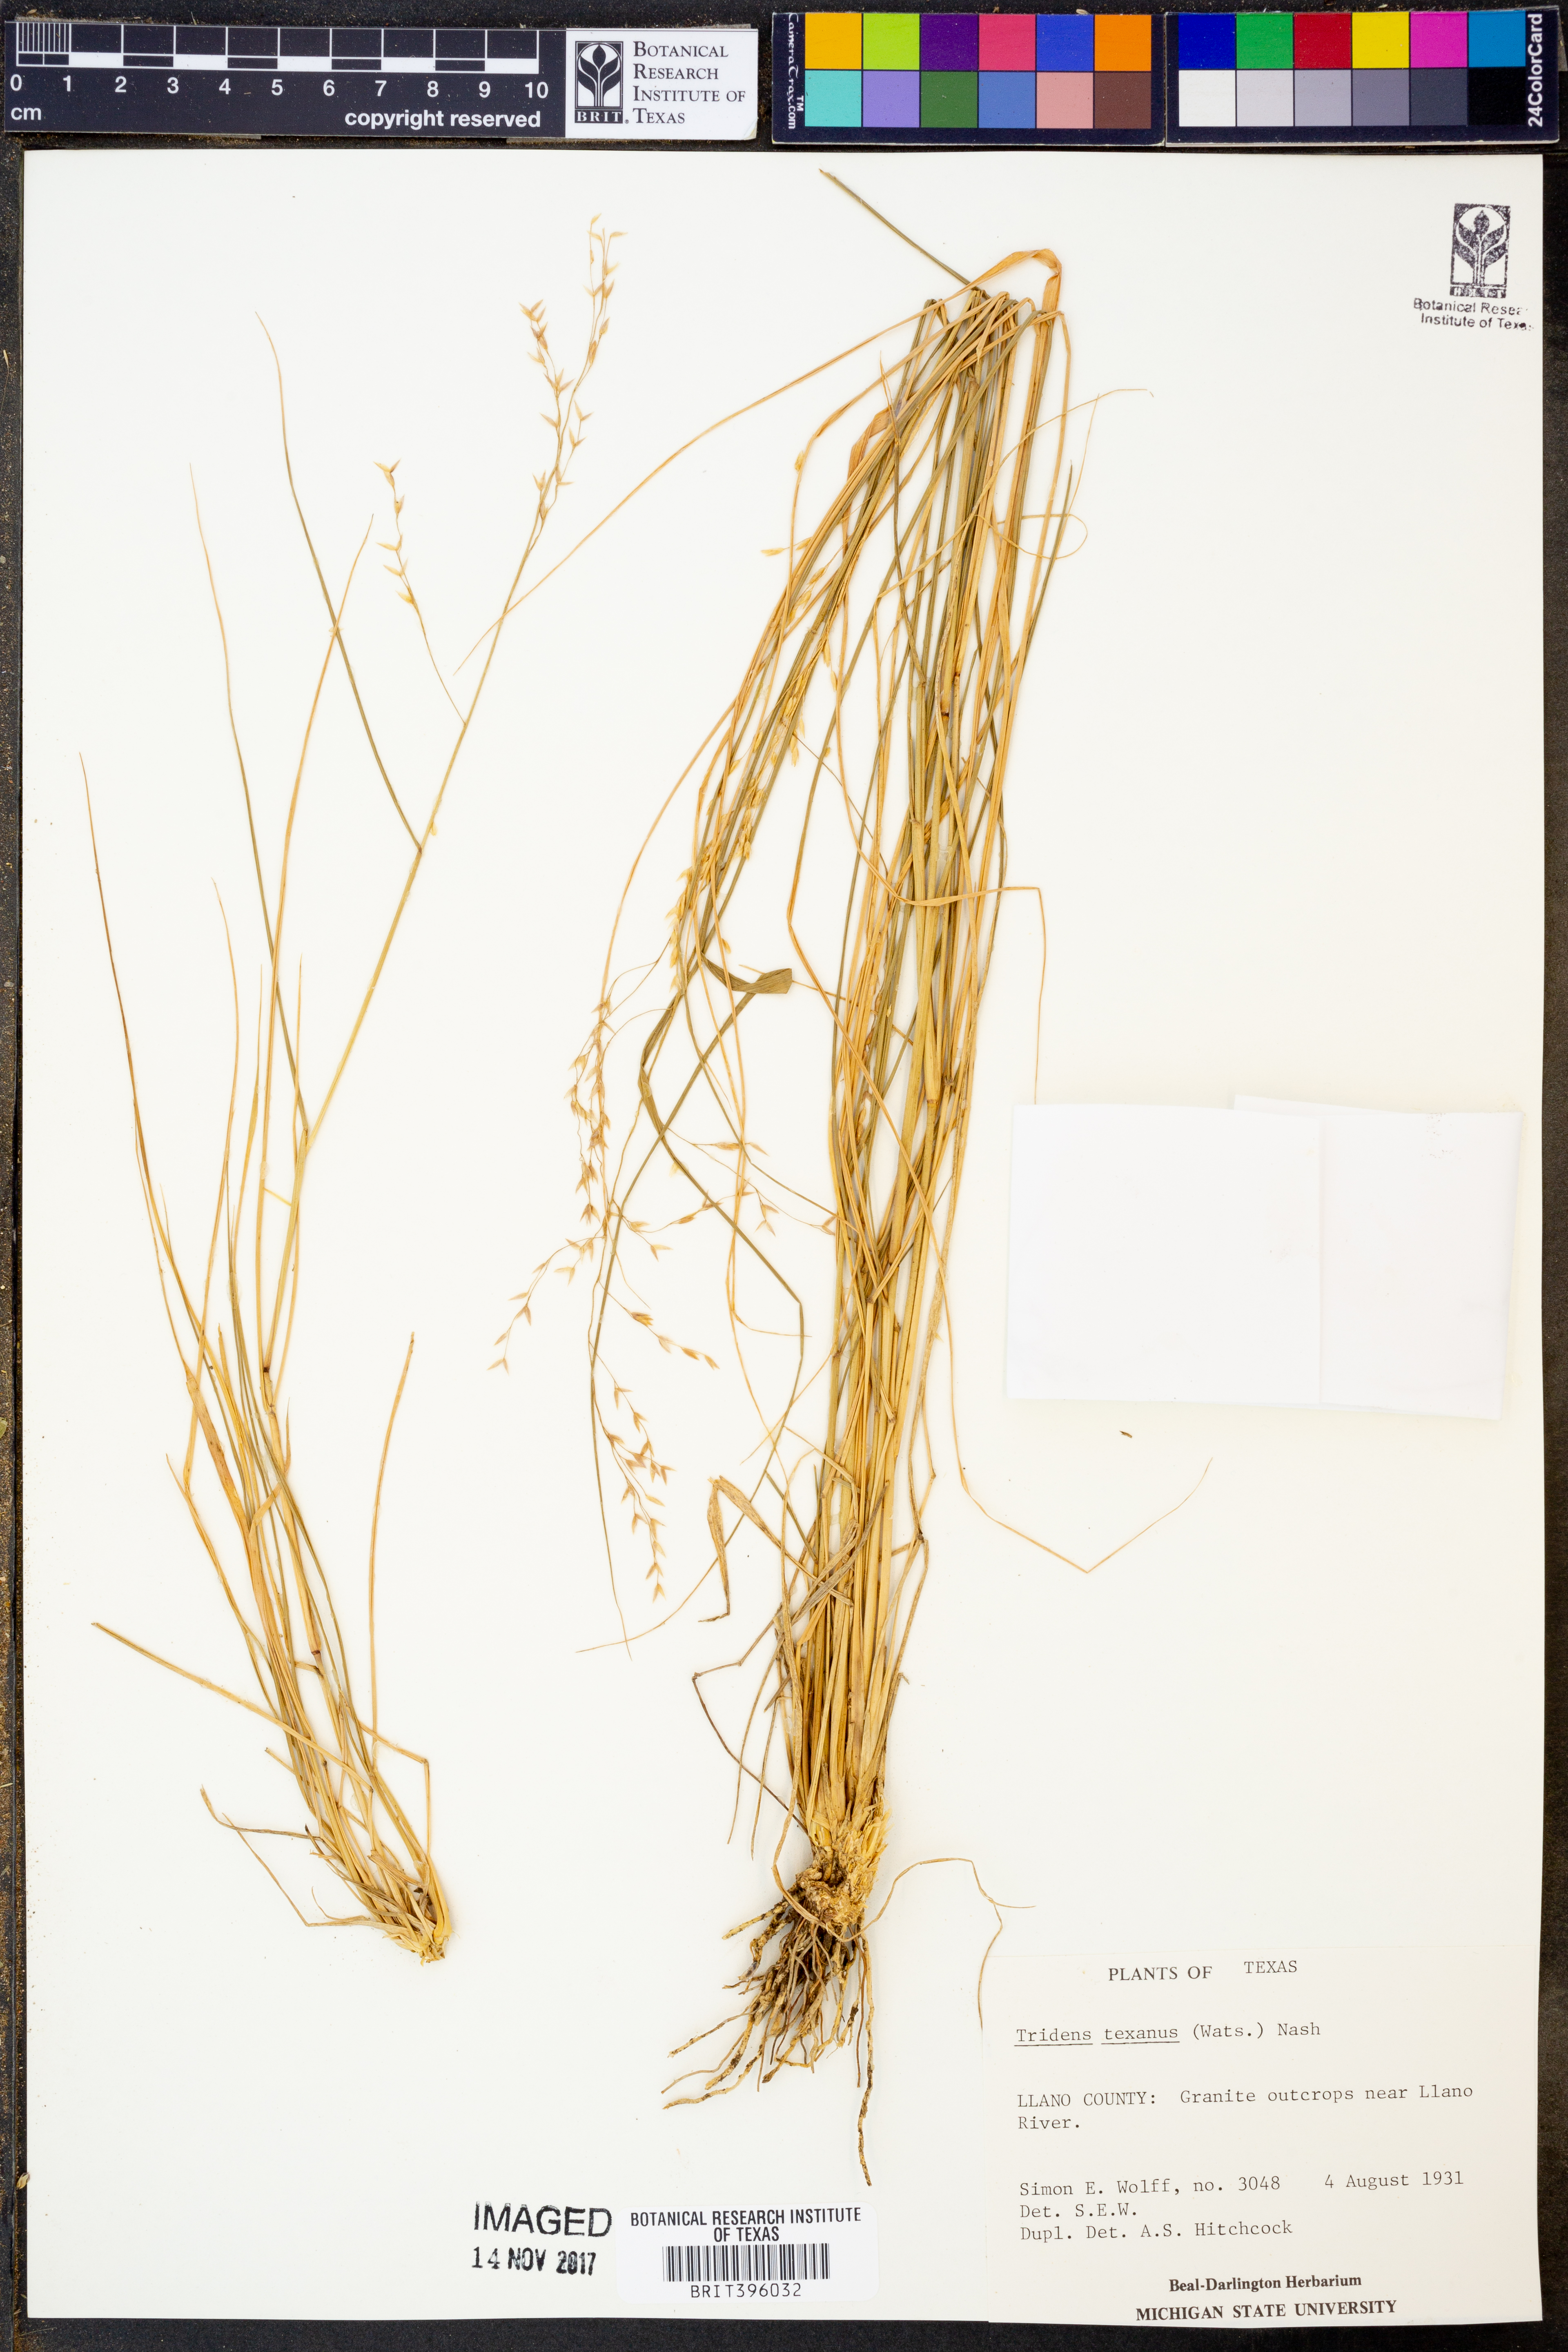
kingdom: Plantae
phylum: Tracheophyta
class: Liliopsida
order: Poales
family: Poaceae
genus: Tridens
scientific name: Tridens texanus
